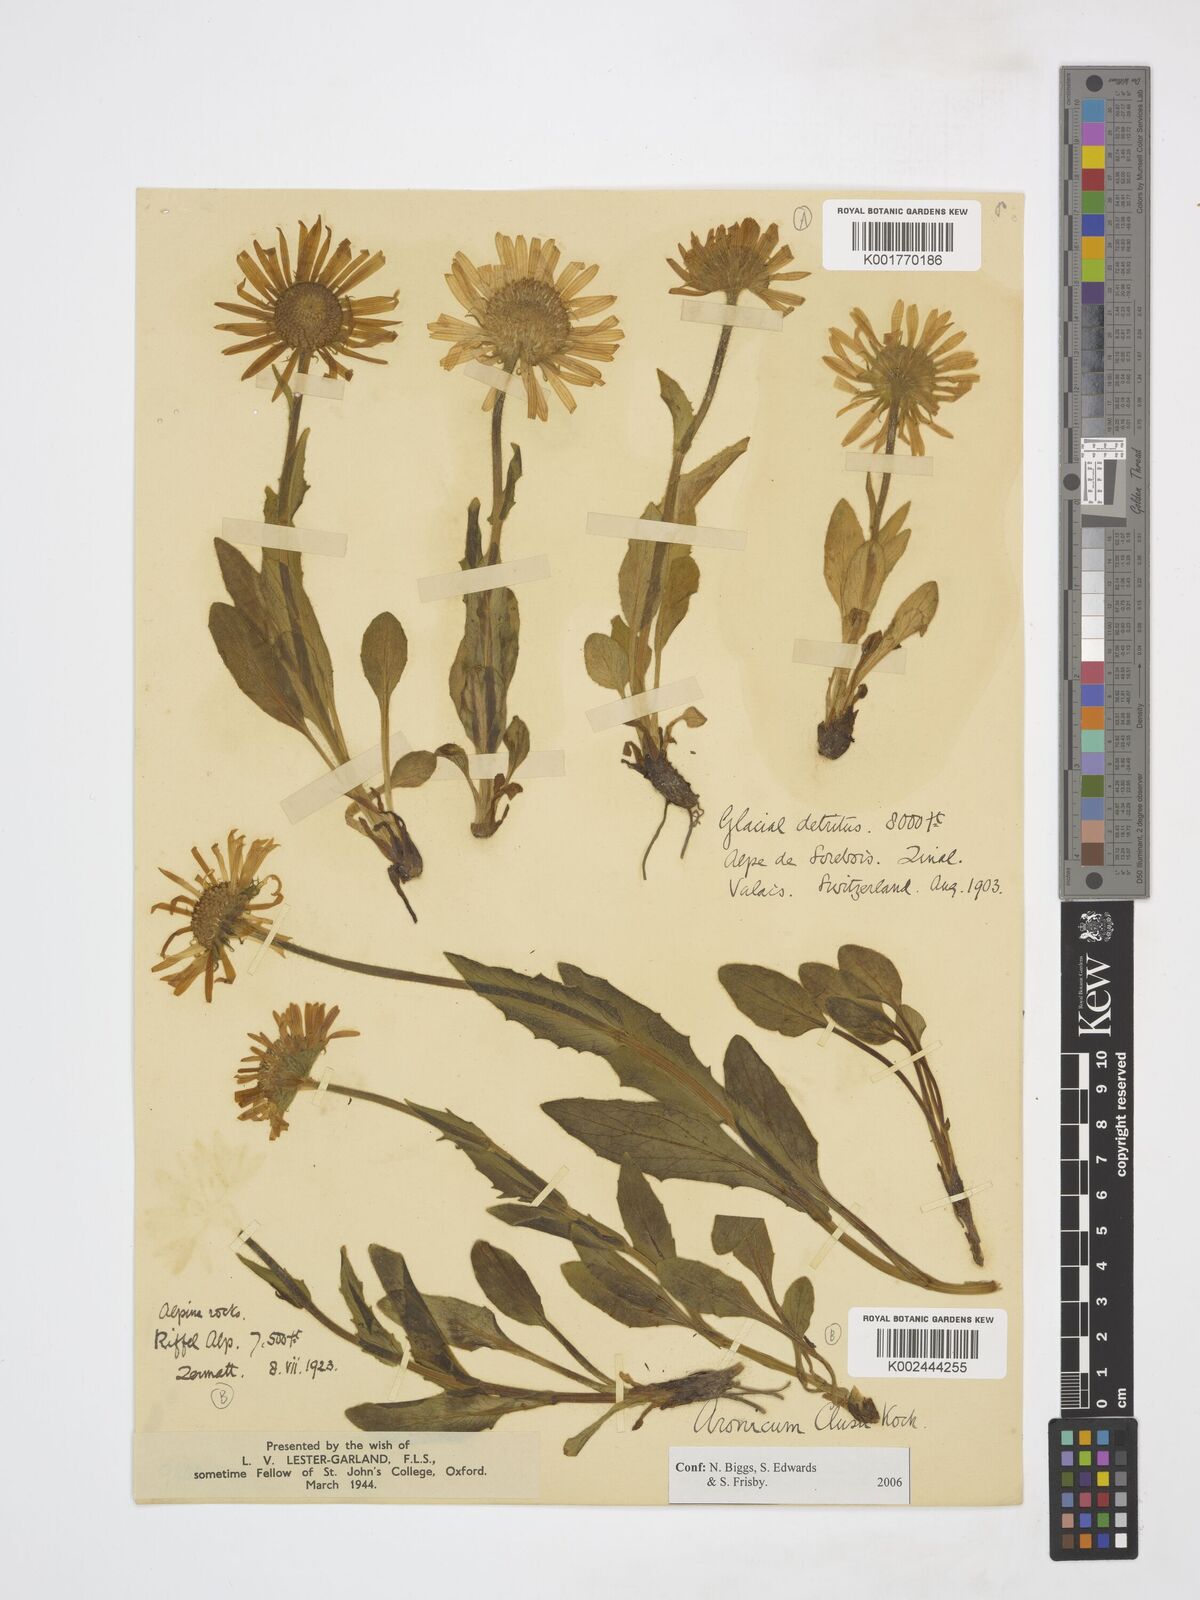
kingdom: Plantae
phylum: Tracheophyta
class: Magnoliopsida
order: Asterales
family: Asteraceae
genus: Doronicum
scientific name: Doronicum clusii
